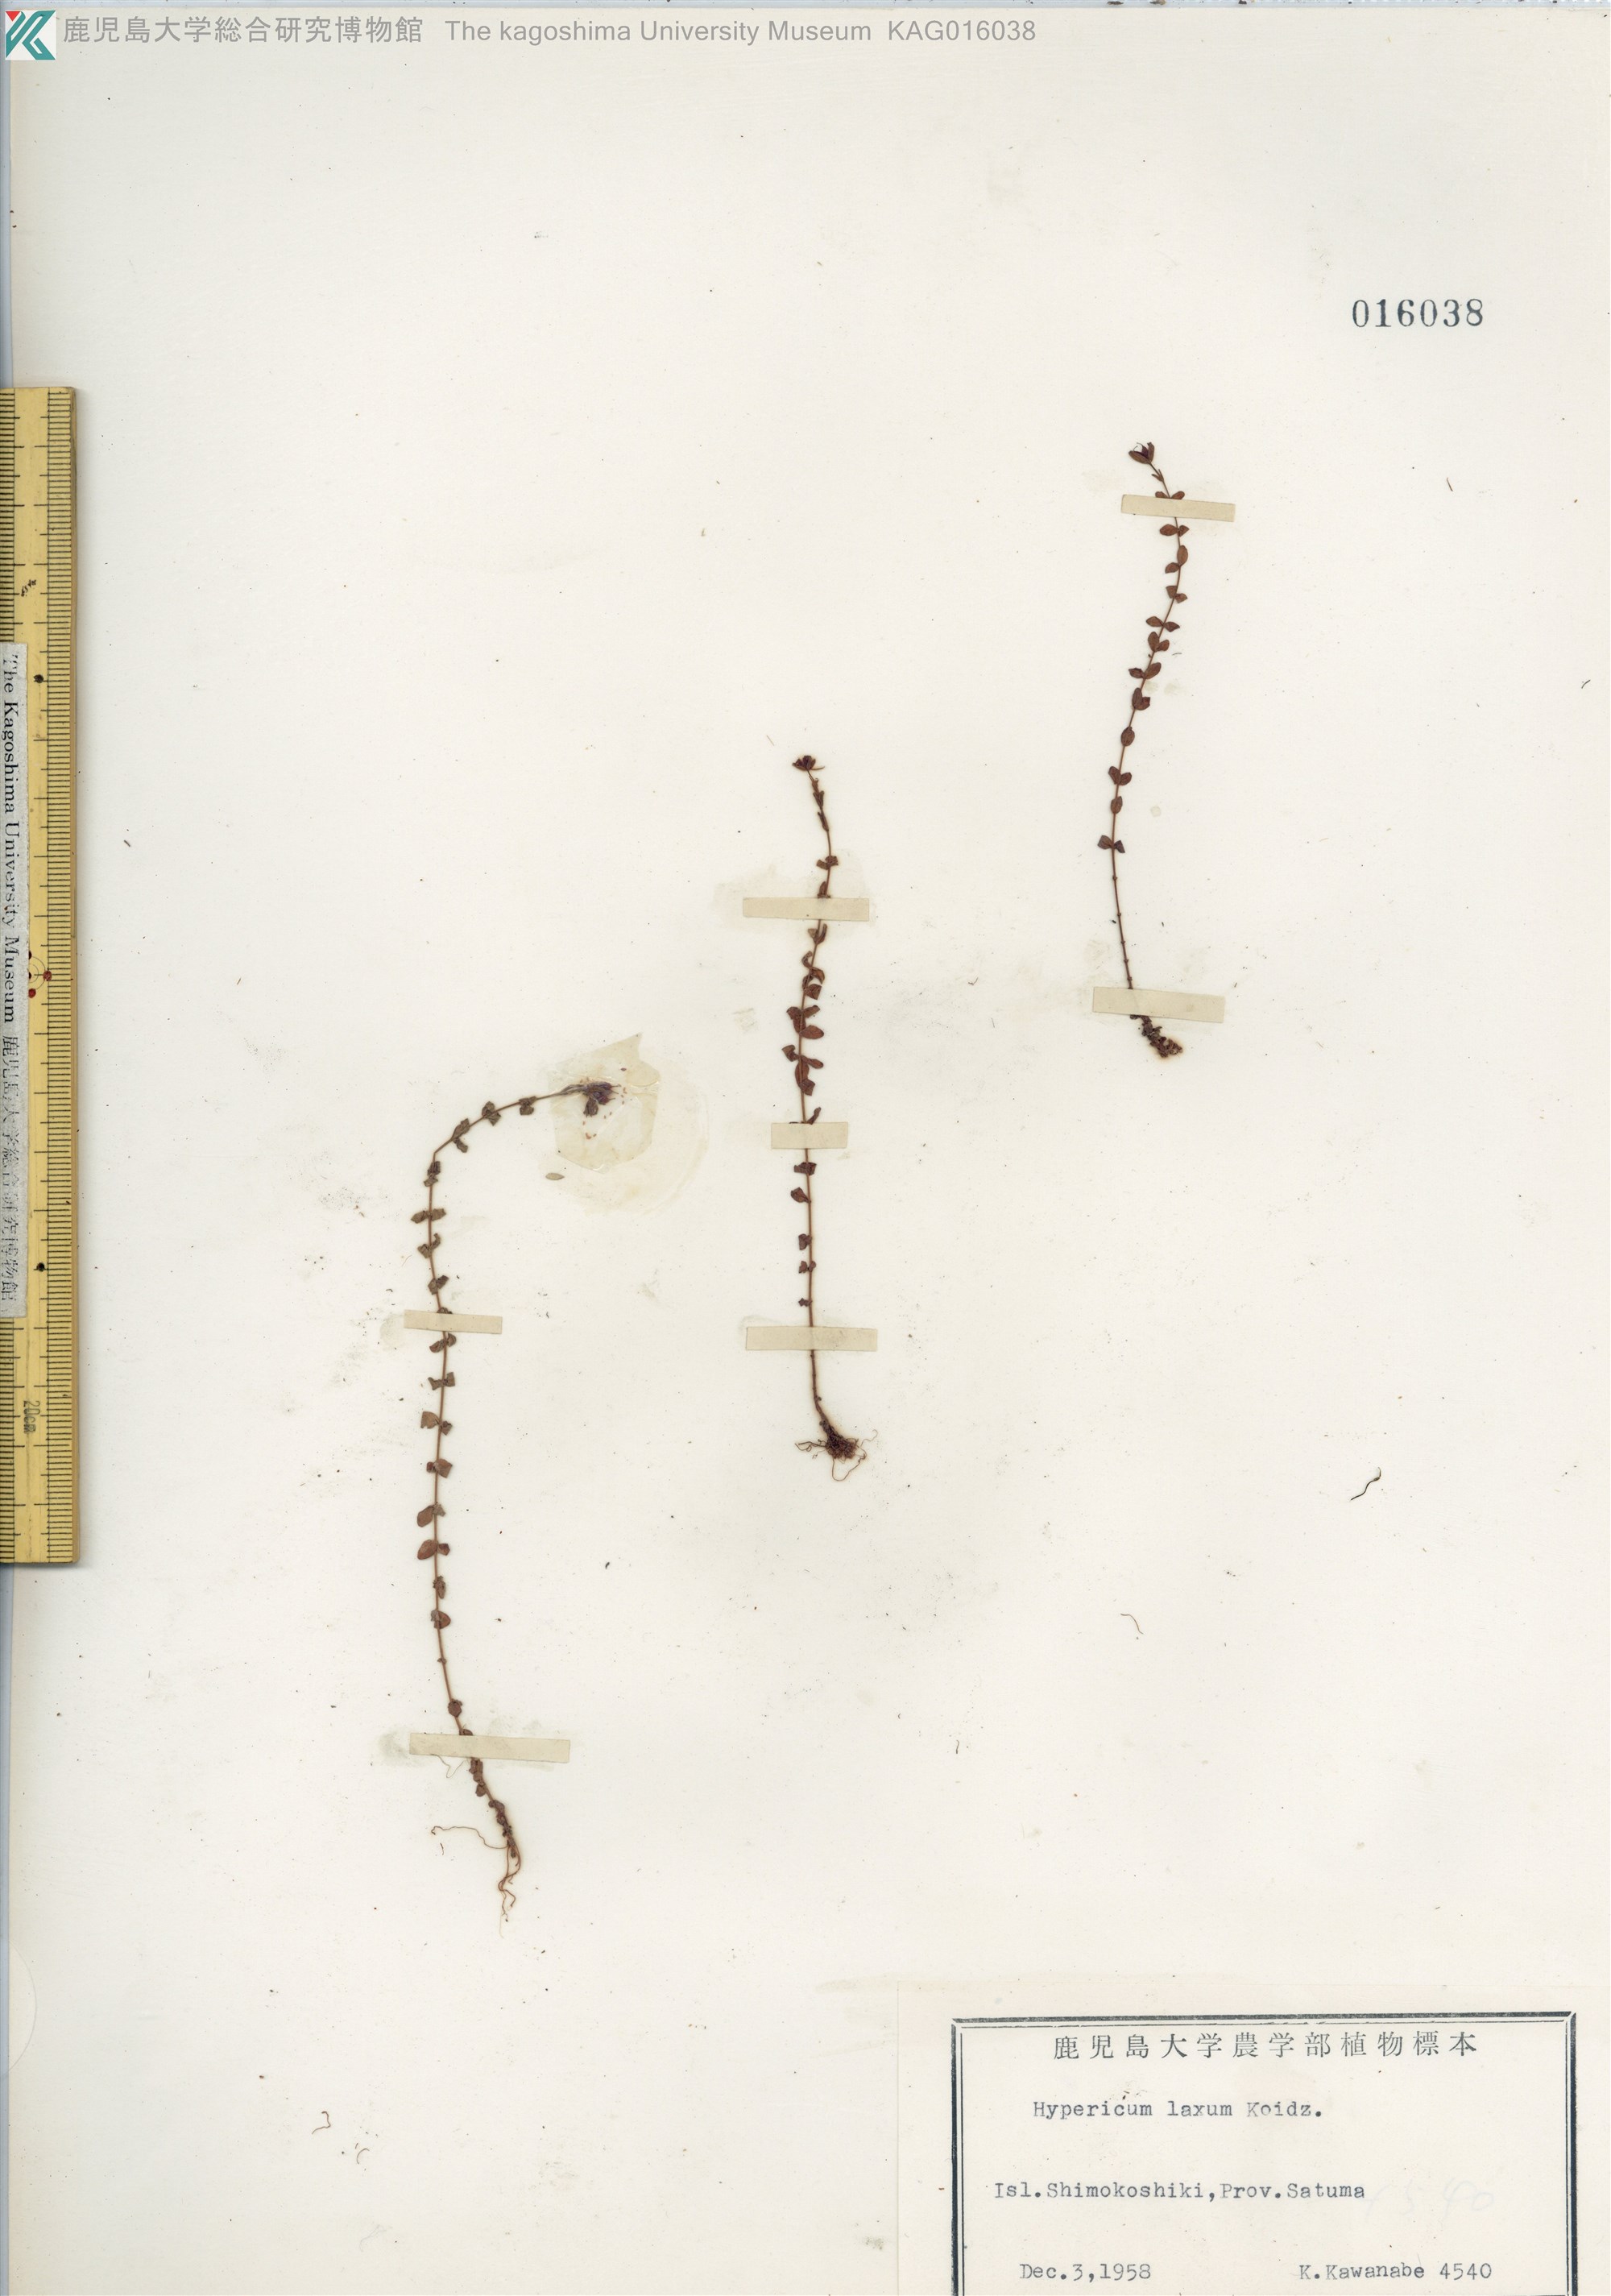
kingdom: Plantae
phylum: Tracheophyta
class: Magnoliopsida
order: Malpighiales
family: Hypericaceae
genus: Hypericum
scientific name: Hypericum japonicum
